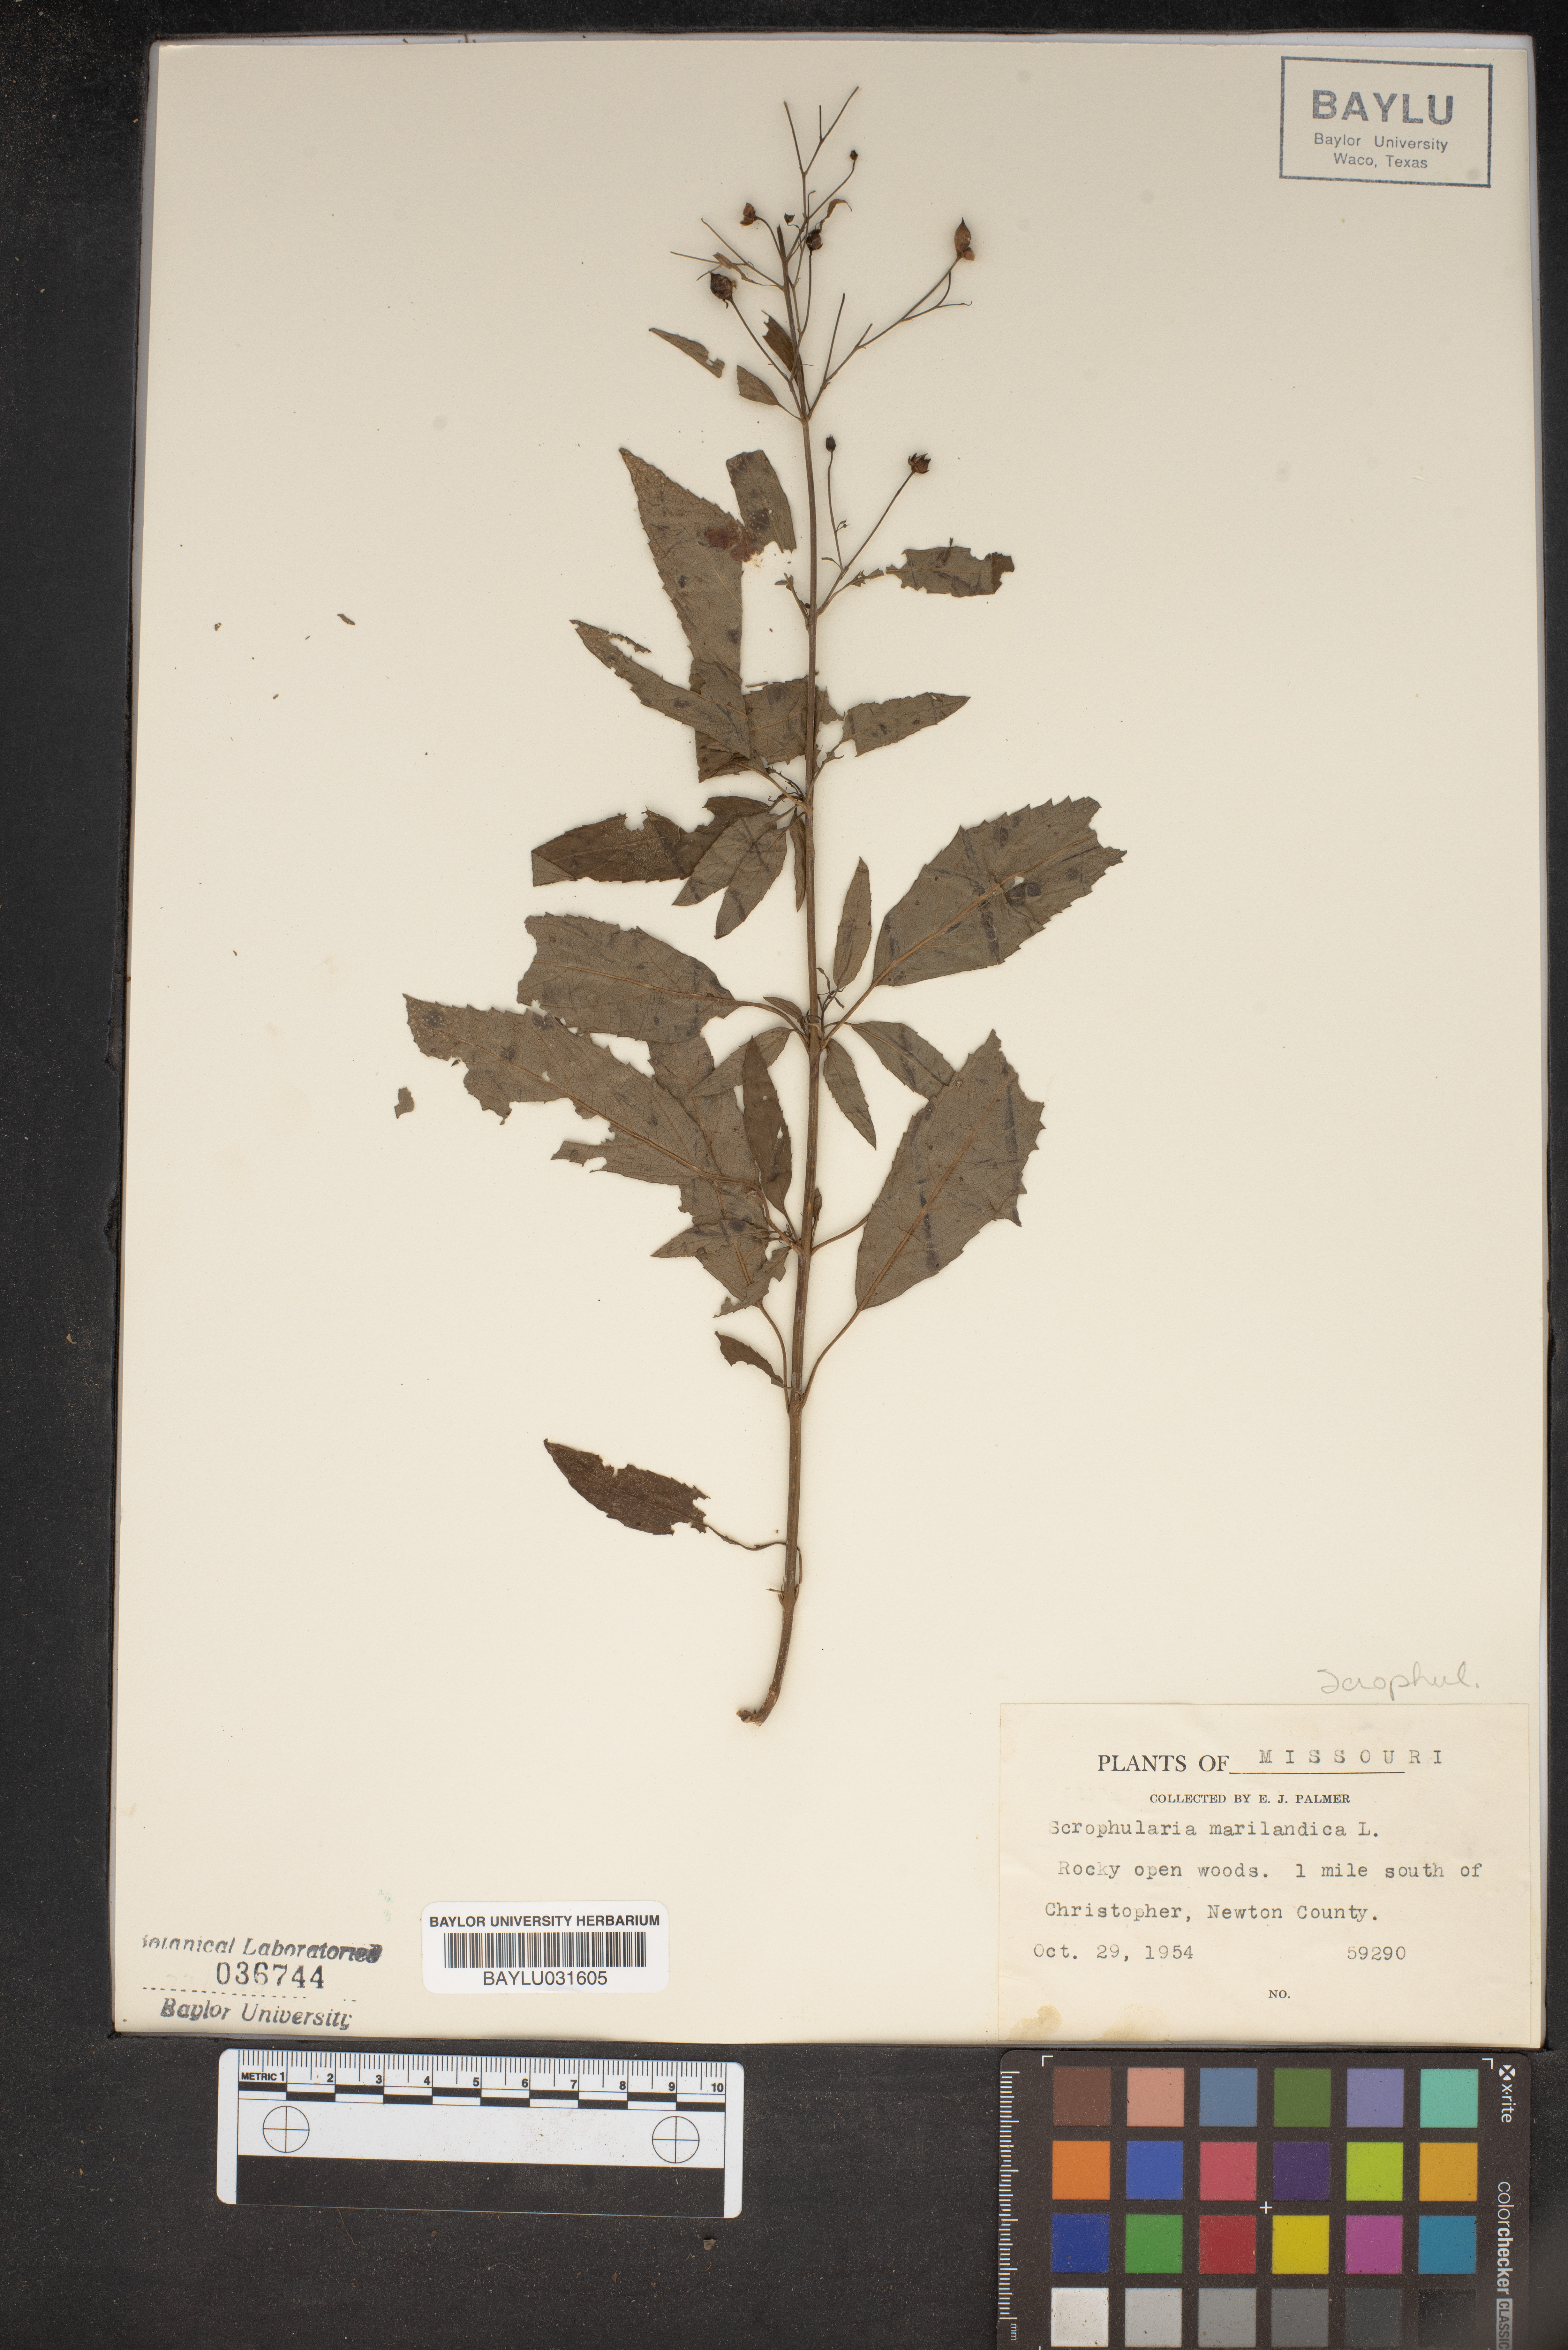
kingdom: Plantae
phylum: Tracheophyta
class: Magnoliopsida
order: Lamiales
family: Scrophulariaceae
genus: Scrophularia
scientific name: Scrophularia marilandica
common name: Eastern figwort
